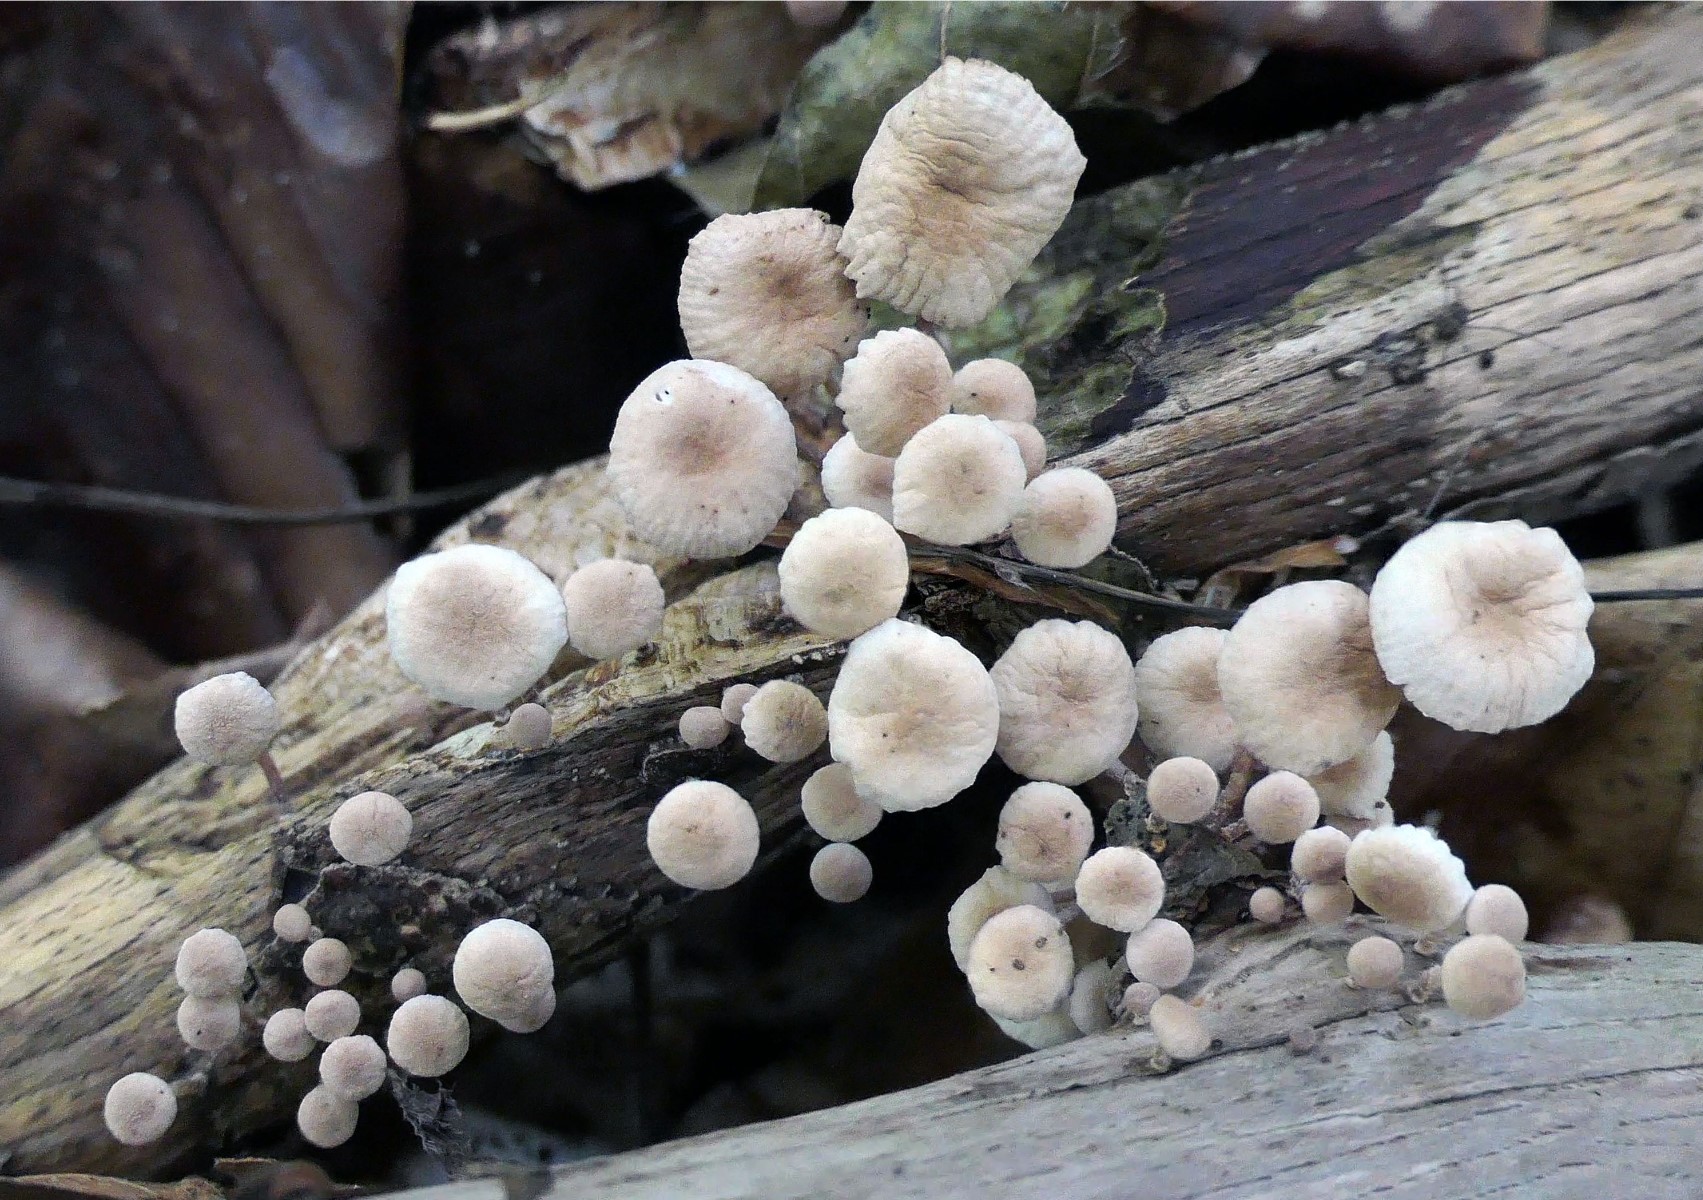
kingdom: Fungi
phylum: Basidiomycota
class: Agaricomycetes
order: Agaricales
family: Omphalotaceae
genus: Collybiopsis
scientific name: Collybiopsis ramealis
